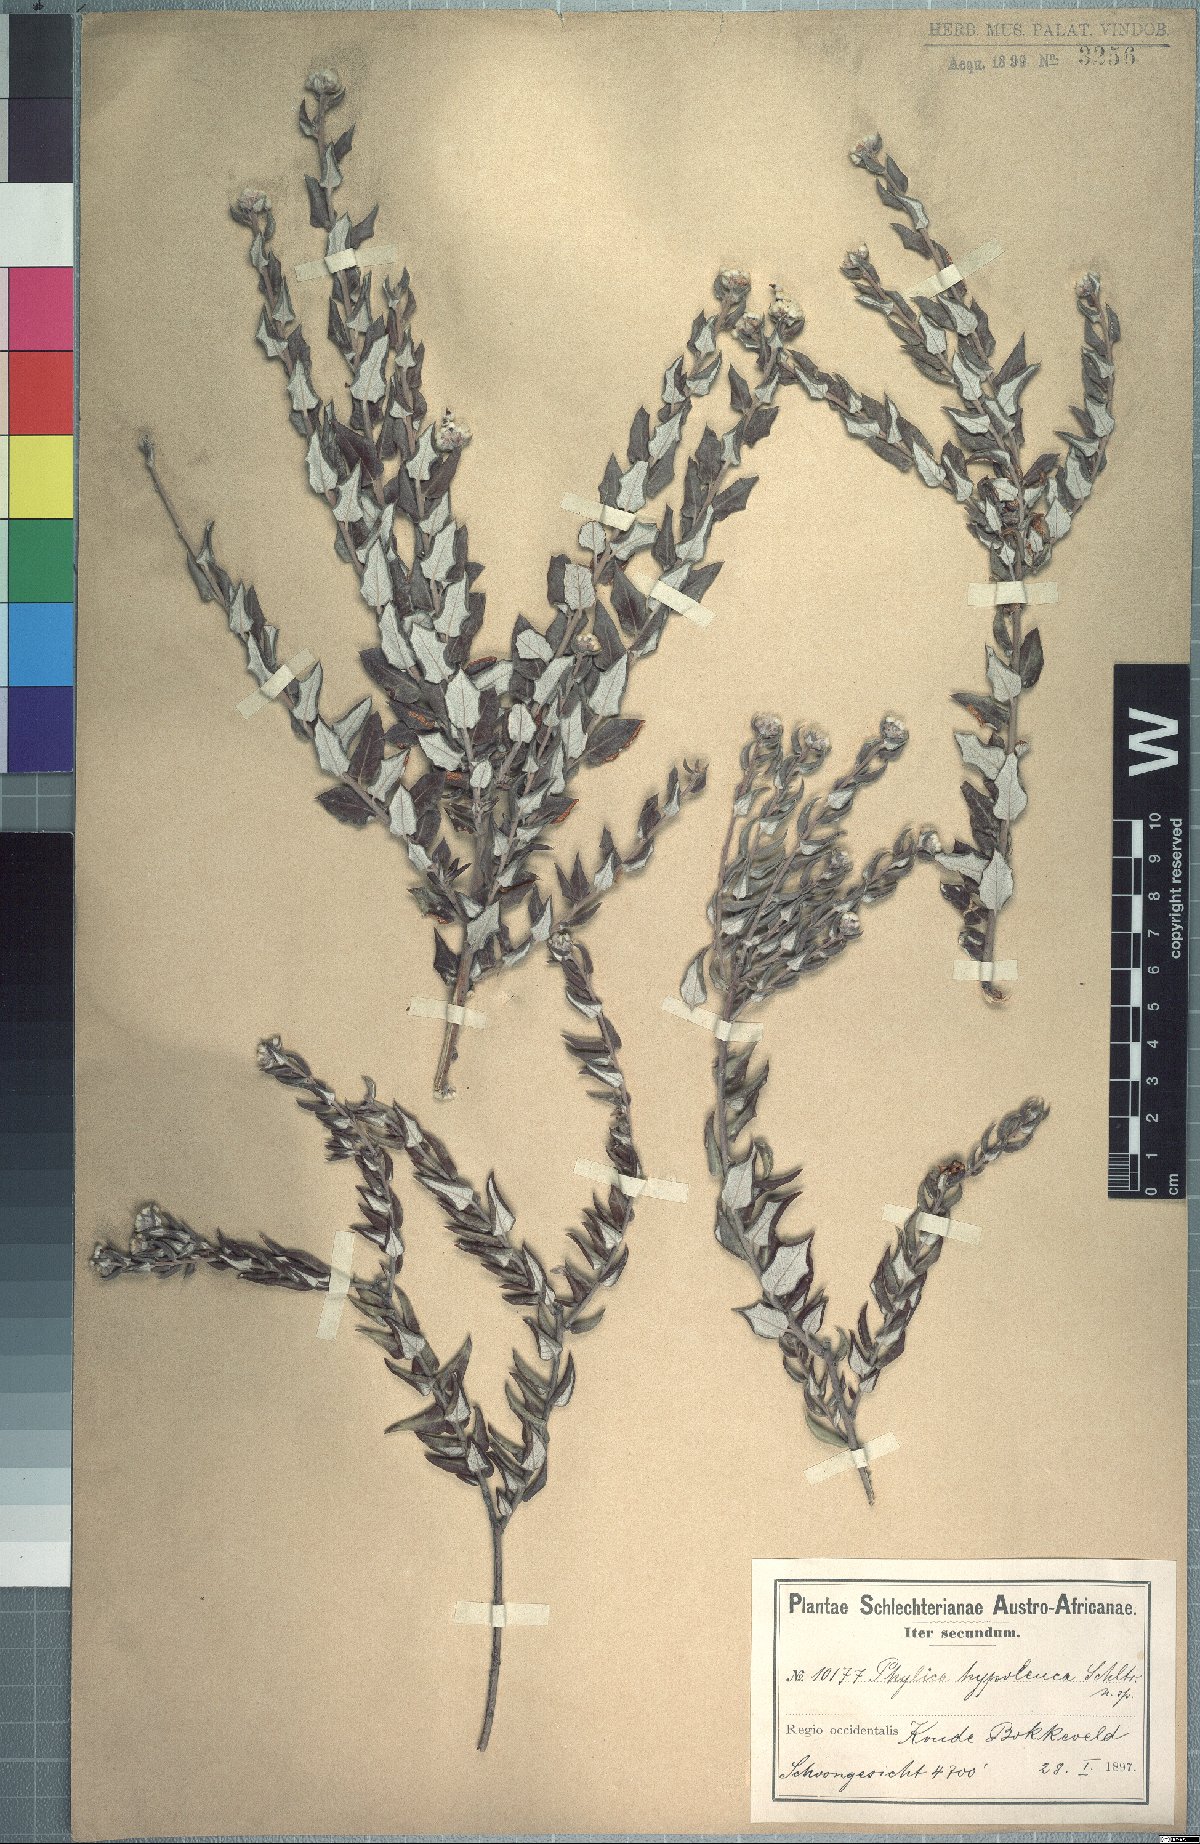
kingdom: Plantae
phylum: Tracheophyta
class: Magnoliopsida
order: Rosales
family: Rhamnaceae
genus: Phylica
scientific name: Phylica nervosa
